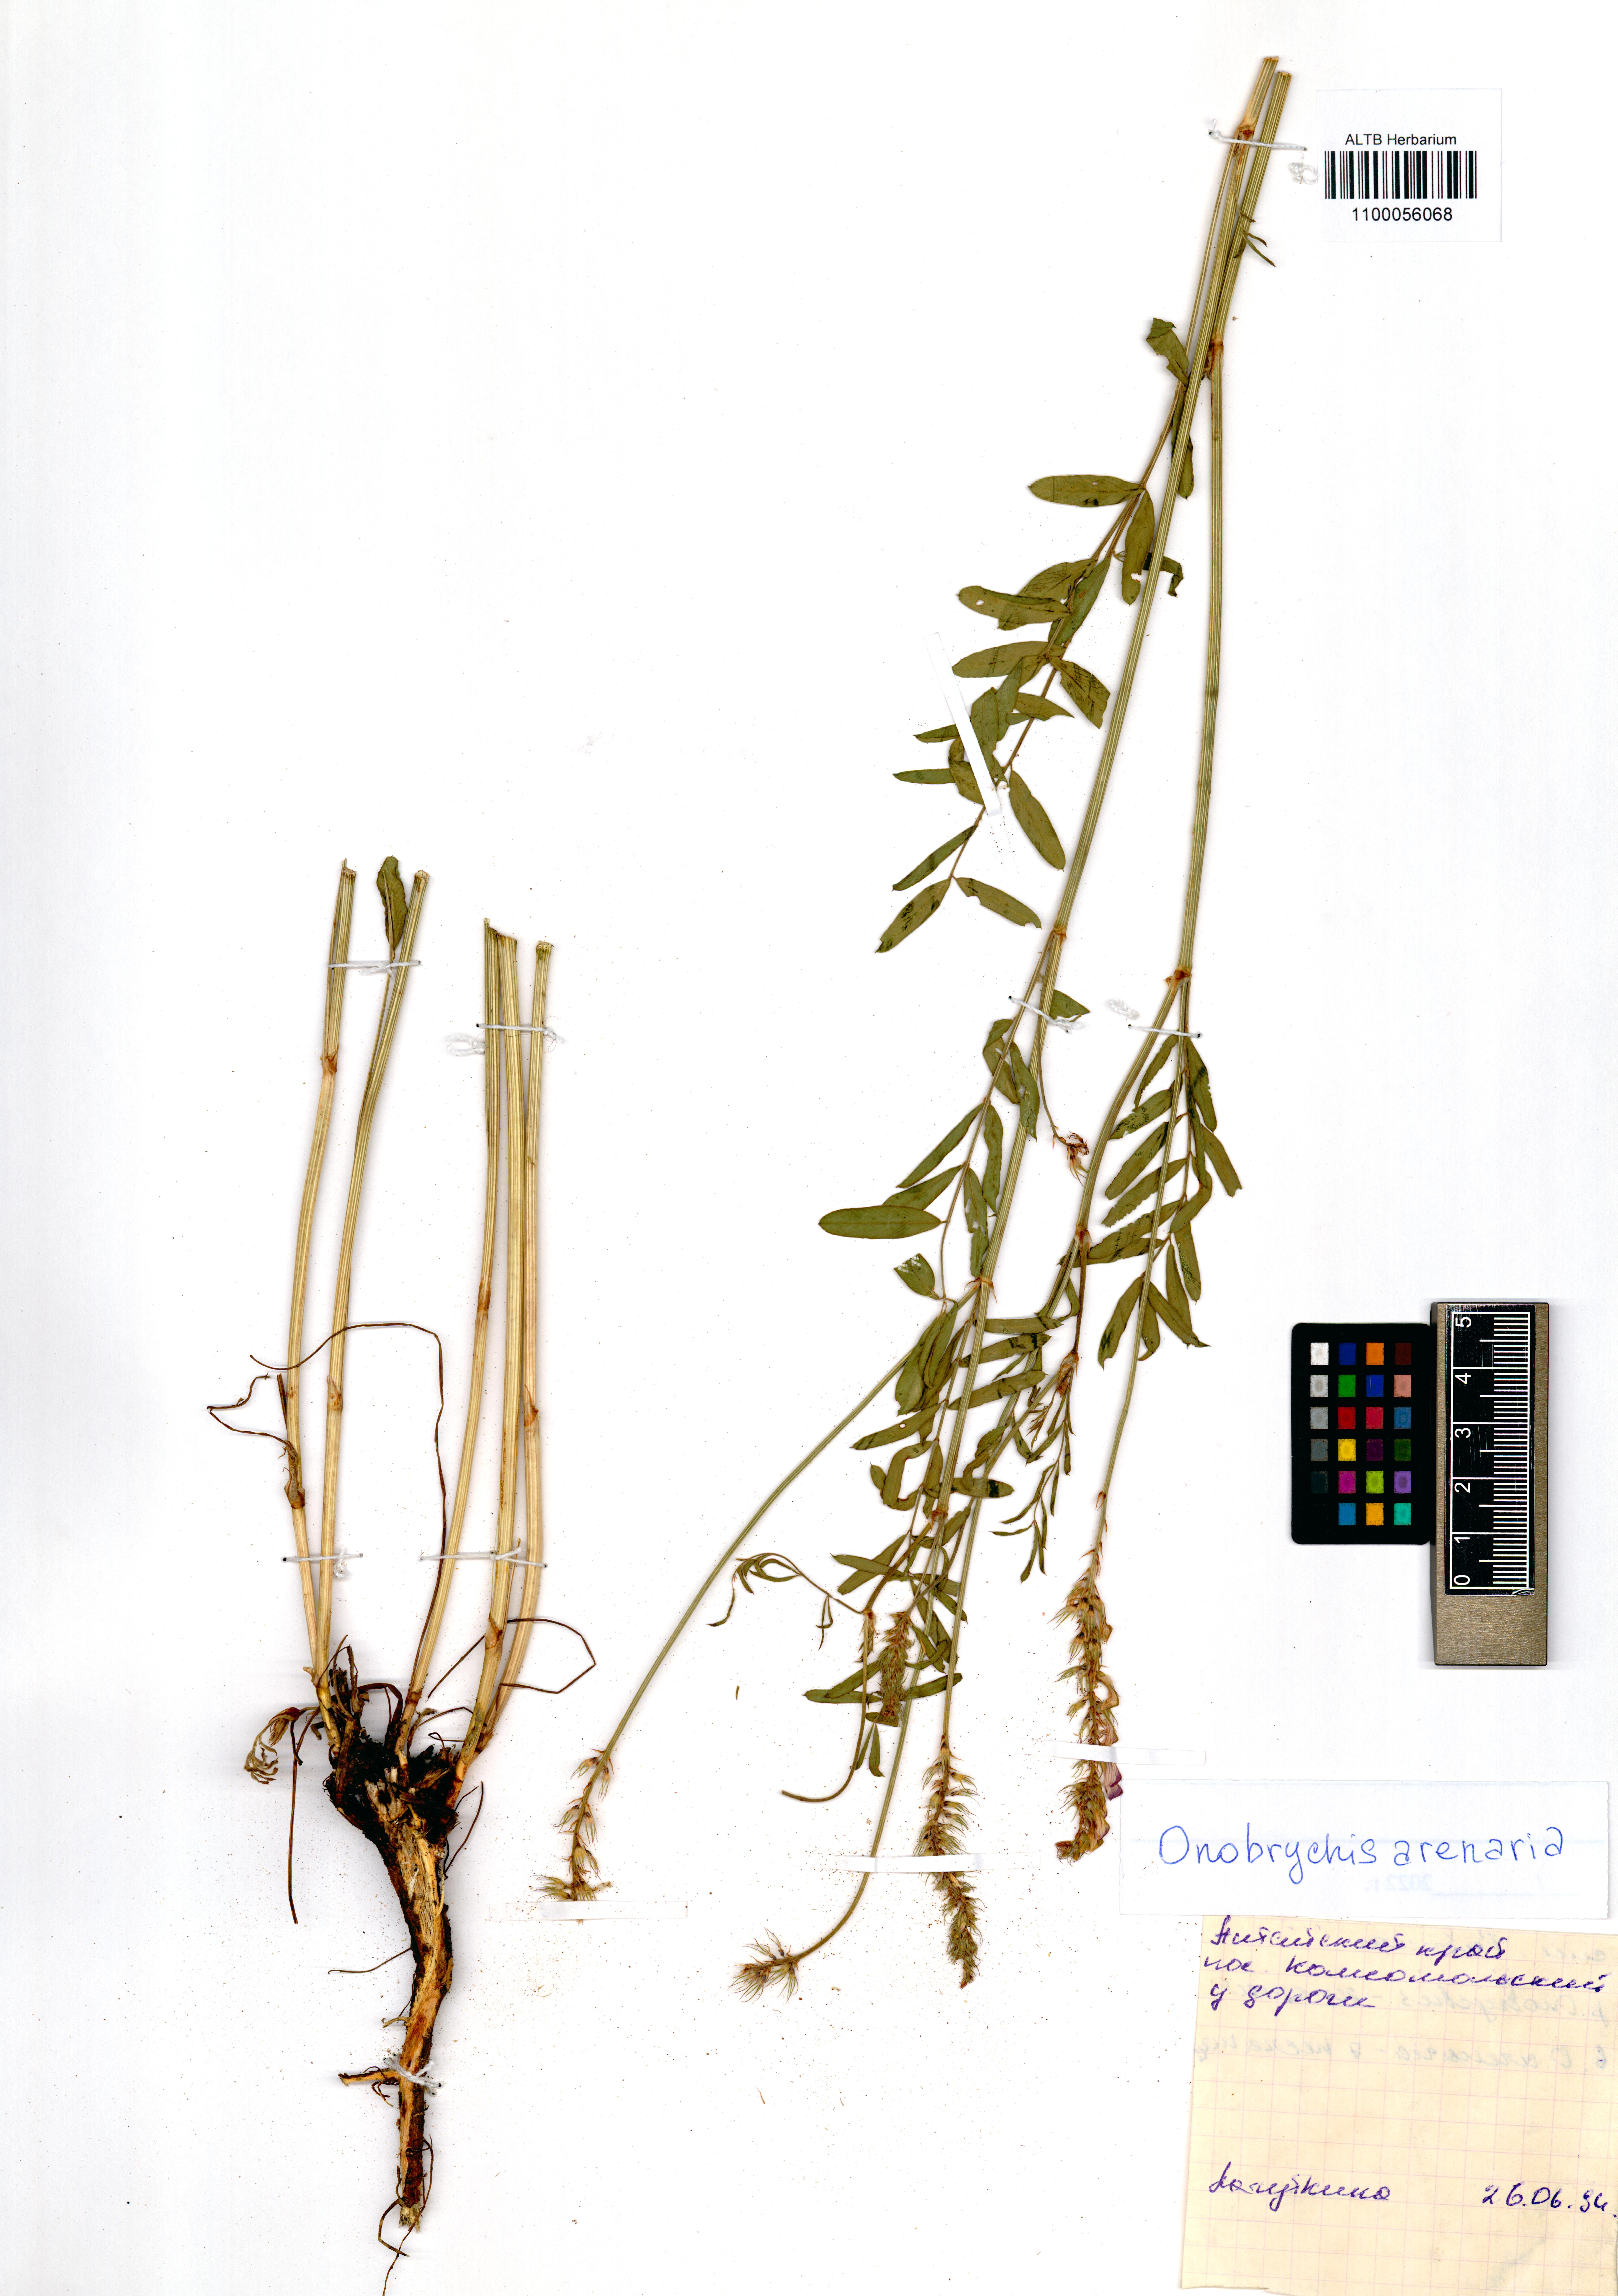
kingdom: Plantae
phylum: Tracheophyta
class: Magnoliopsida
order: Fabales
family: Fabaceae
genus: Onobrychis
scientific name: Onobrychis arenaria
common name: Sand esparcet
